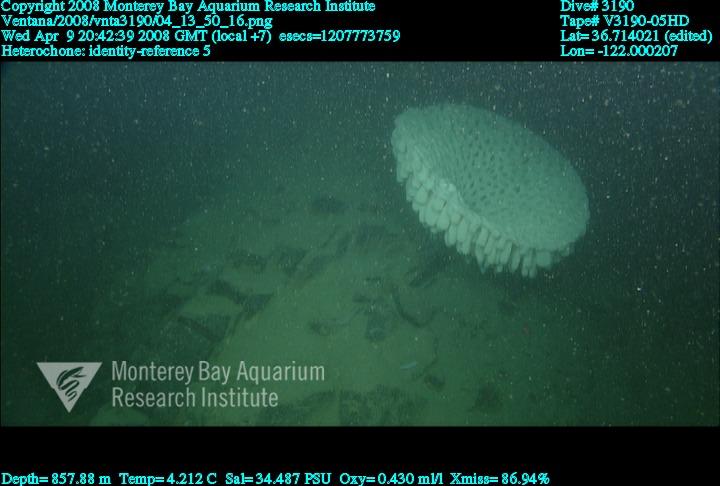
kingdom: Animalia
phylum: Porifera
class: Hexactinellida
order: Sceptrulophora
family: Aphrocallistidae
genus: Heterochone
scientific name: Heterochone
